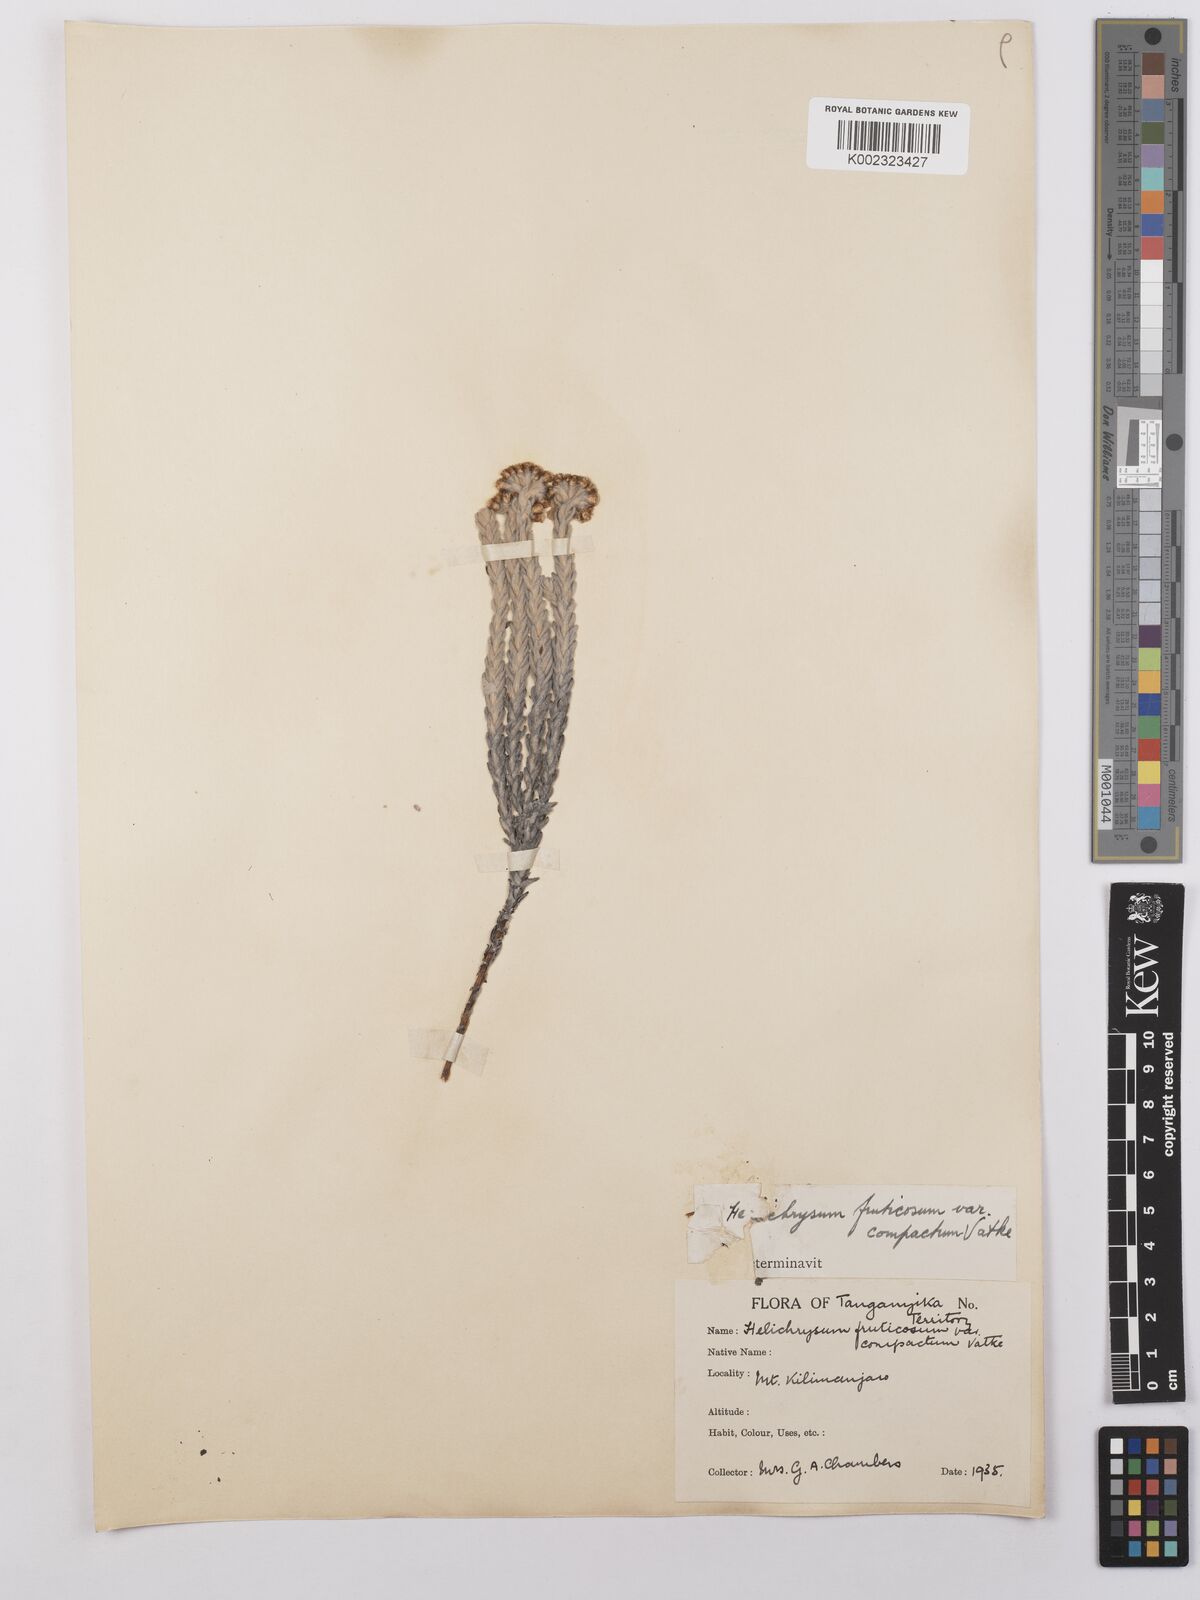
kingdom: Plantae
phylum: Tracheophyta
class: Magnoliopsida
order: Asterales
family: Asteraceae
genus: Helichrysum
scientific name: Helichrysum forskahlii
